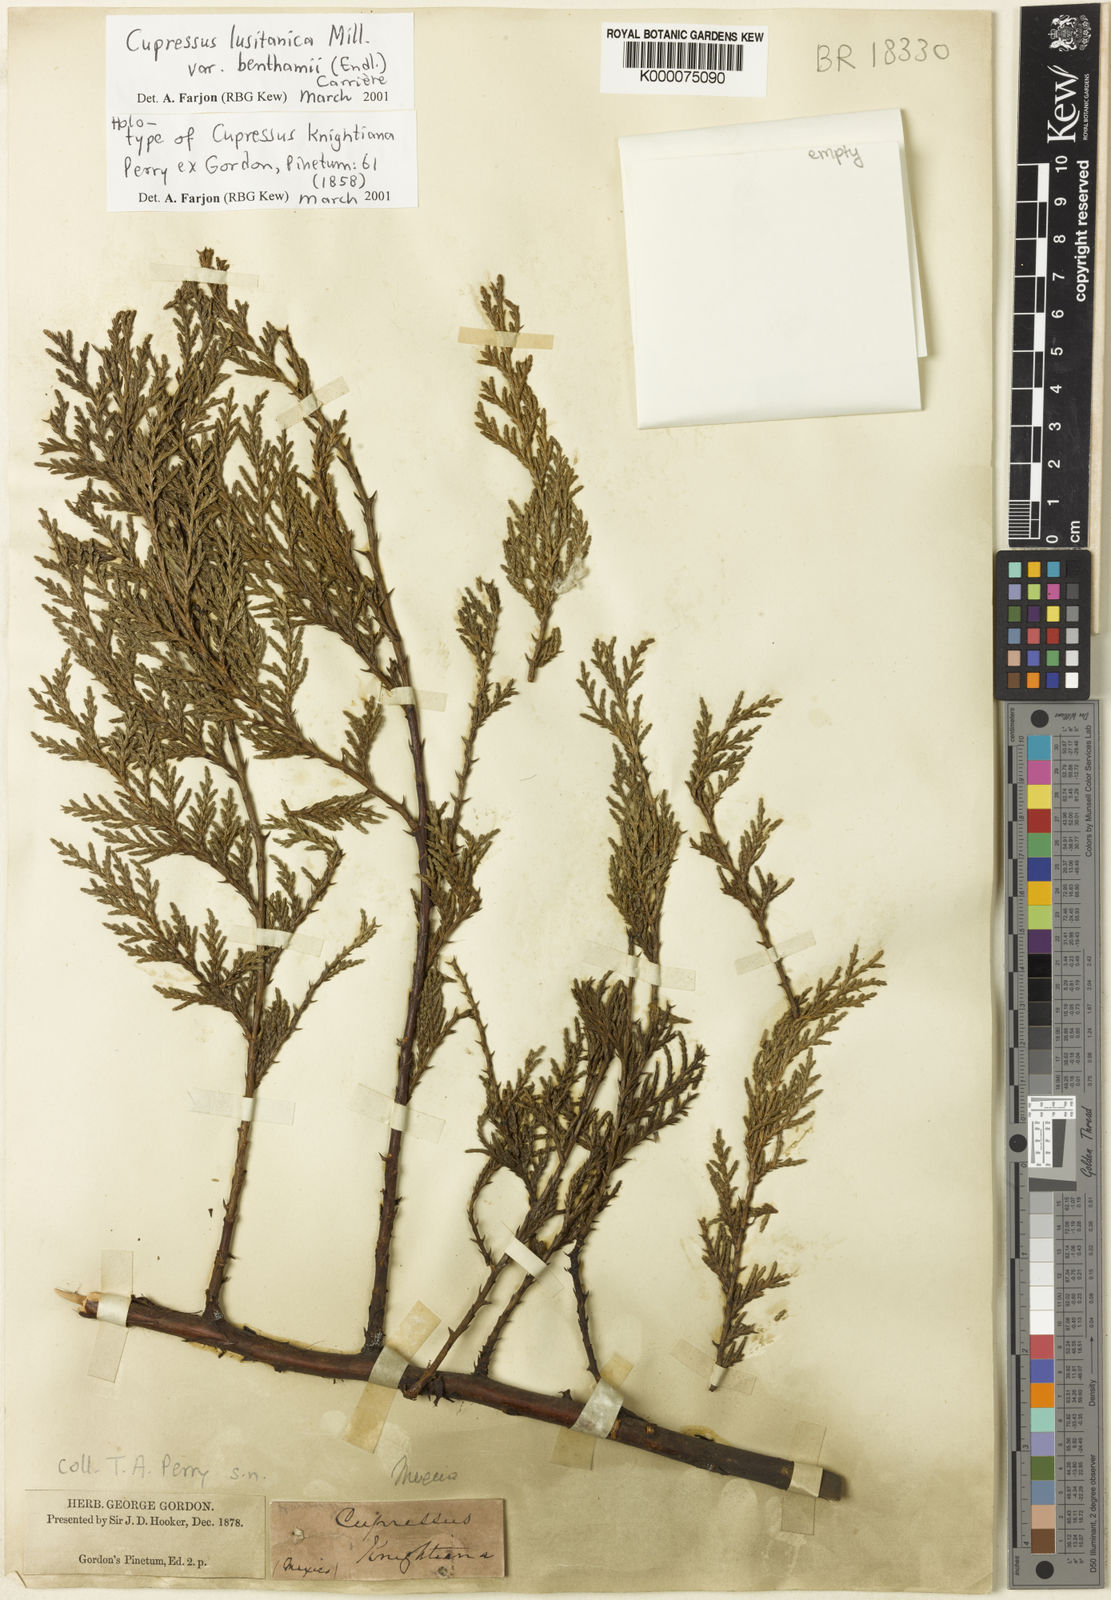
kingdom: Plantae
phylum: Tracheophyta
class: Pinopsida
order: Pinales
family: Cupressaceae
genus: Cupressus
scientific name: Cupressus lusitanica
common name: Mexican cypress
